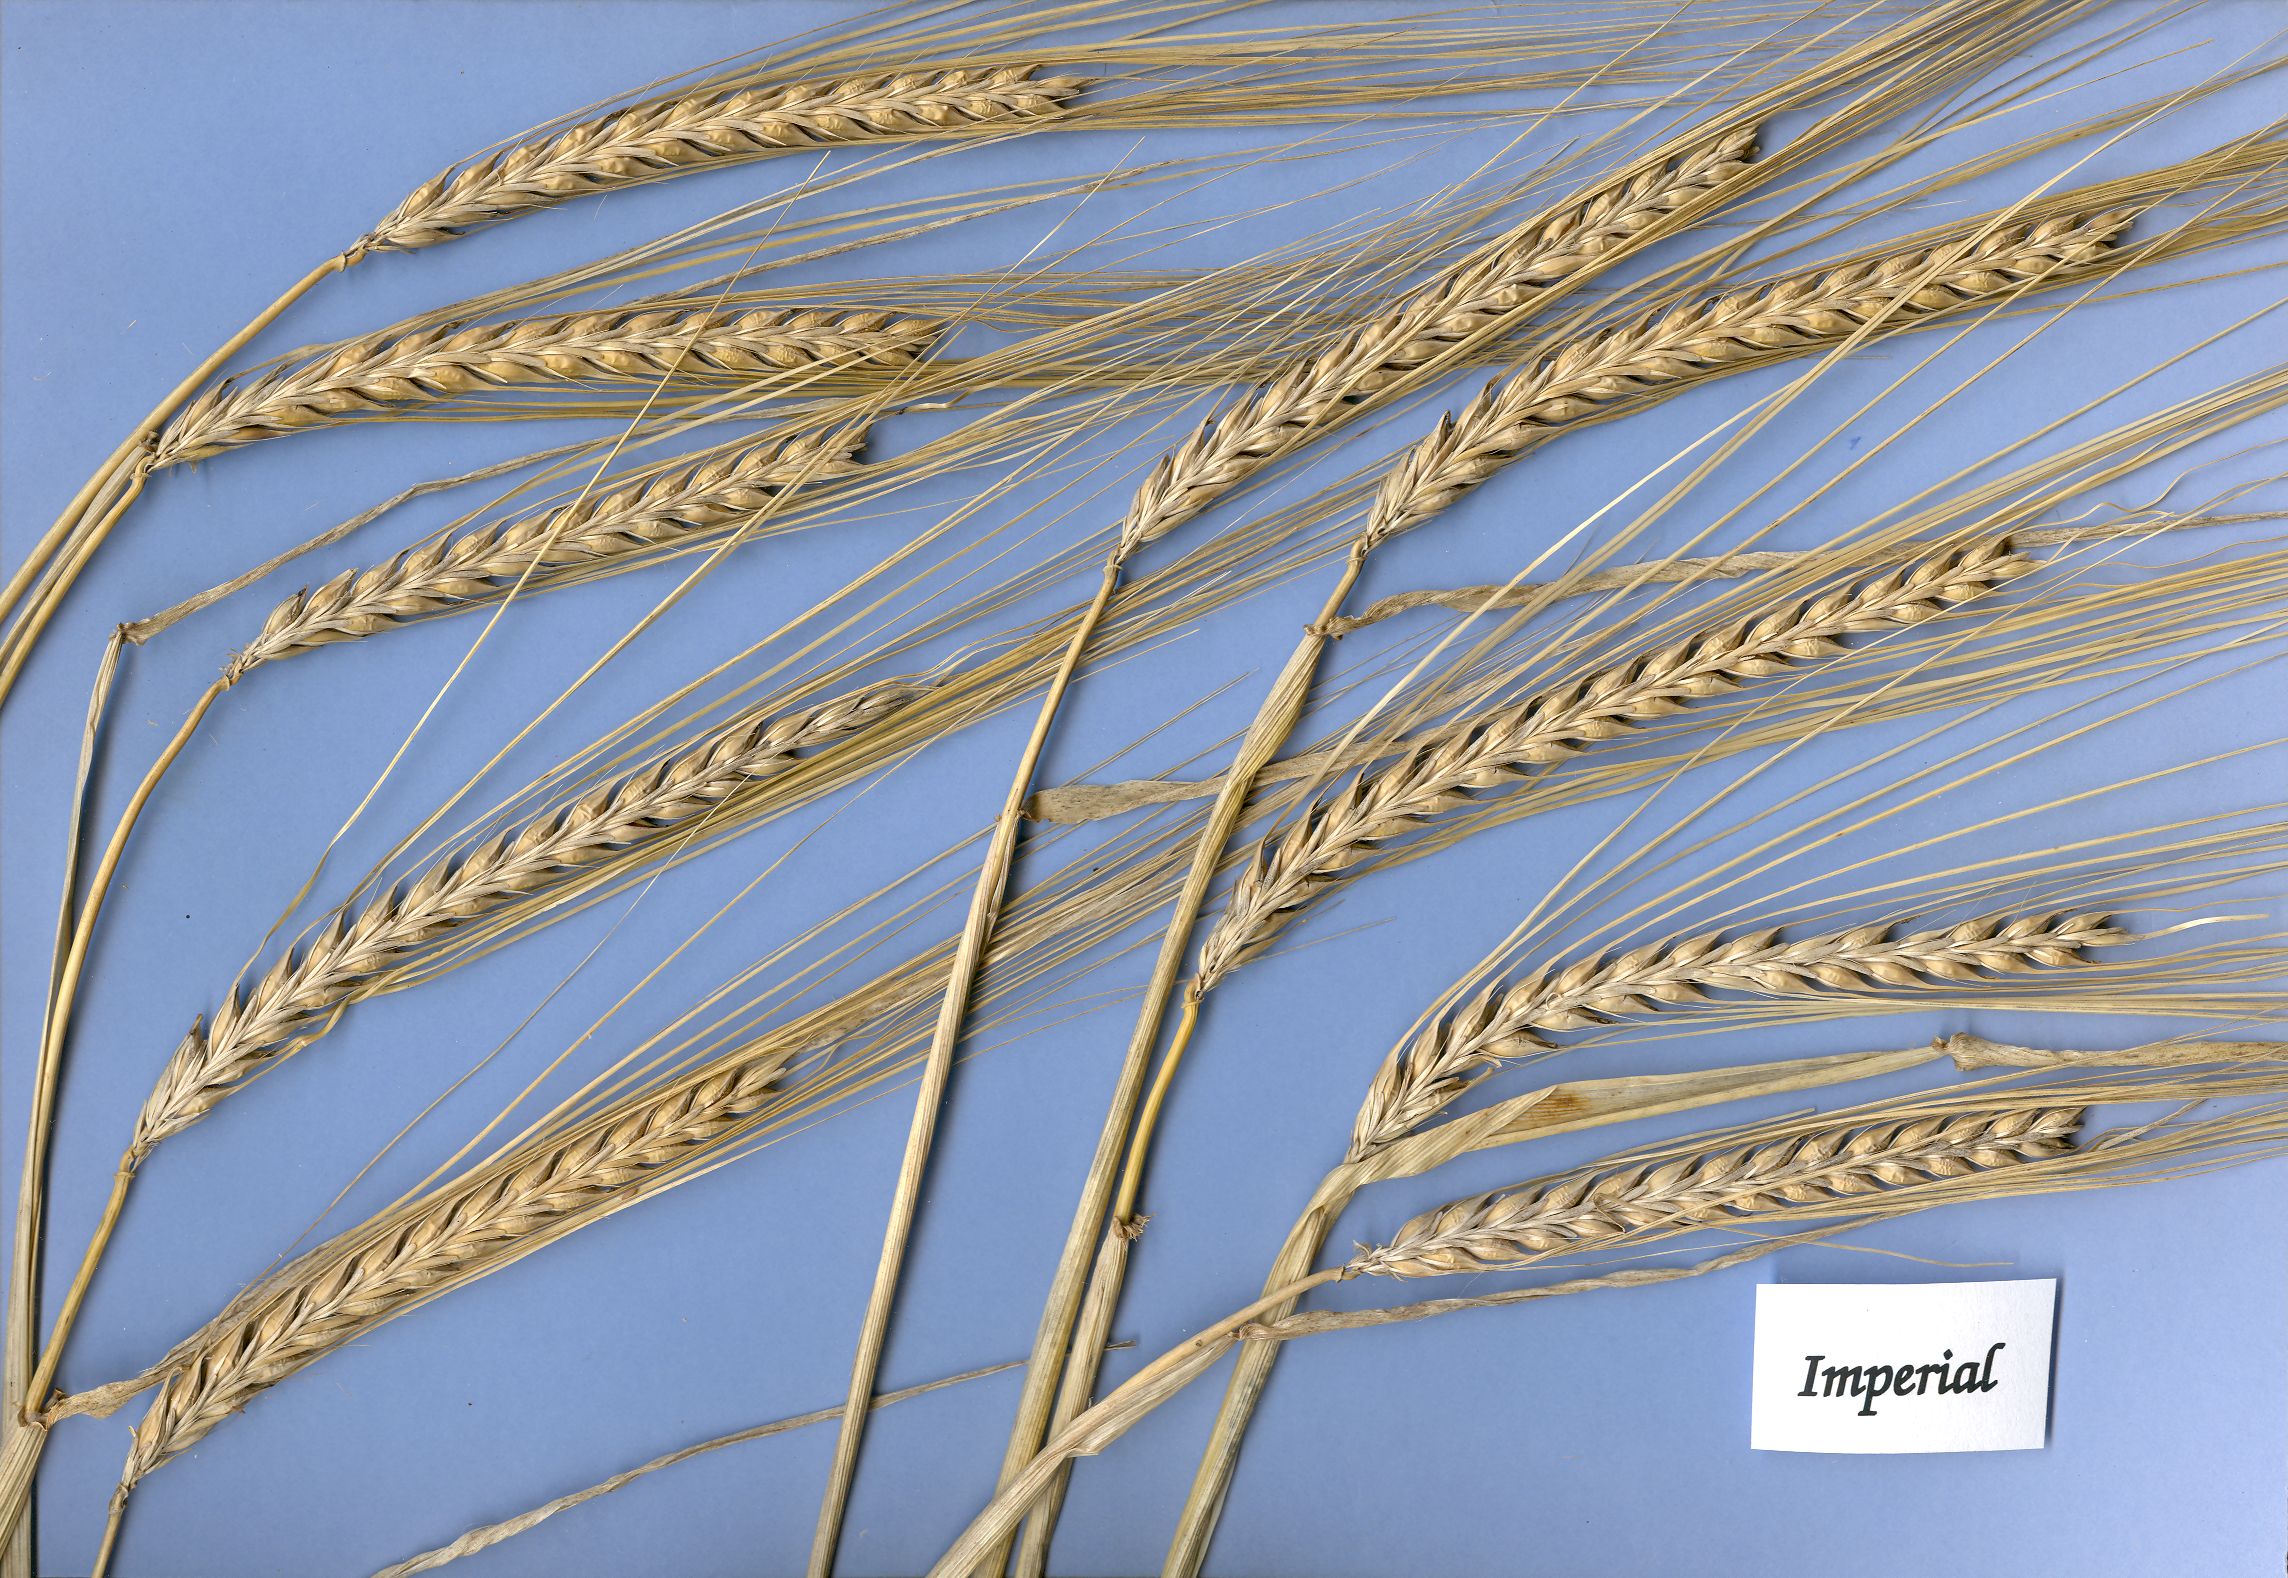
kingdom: Plantae
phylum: Tracheophyta
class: Liliopsida
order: Poales
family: Poaceae
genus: Hordeum
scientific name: Hordeum vulgare
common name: Common barley
